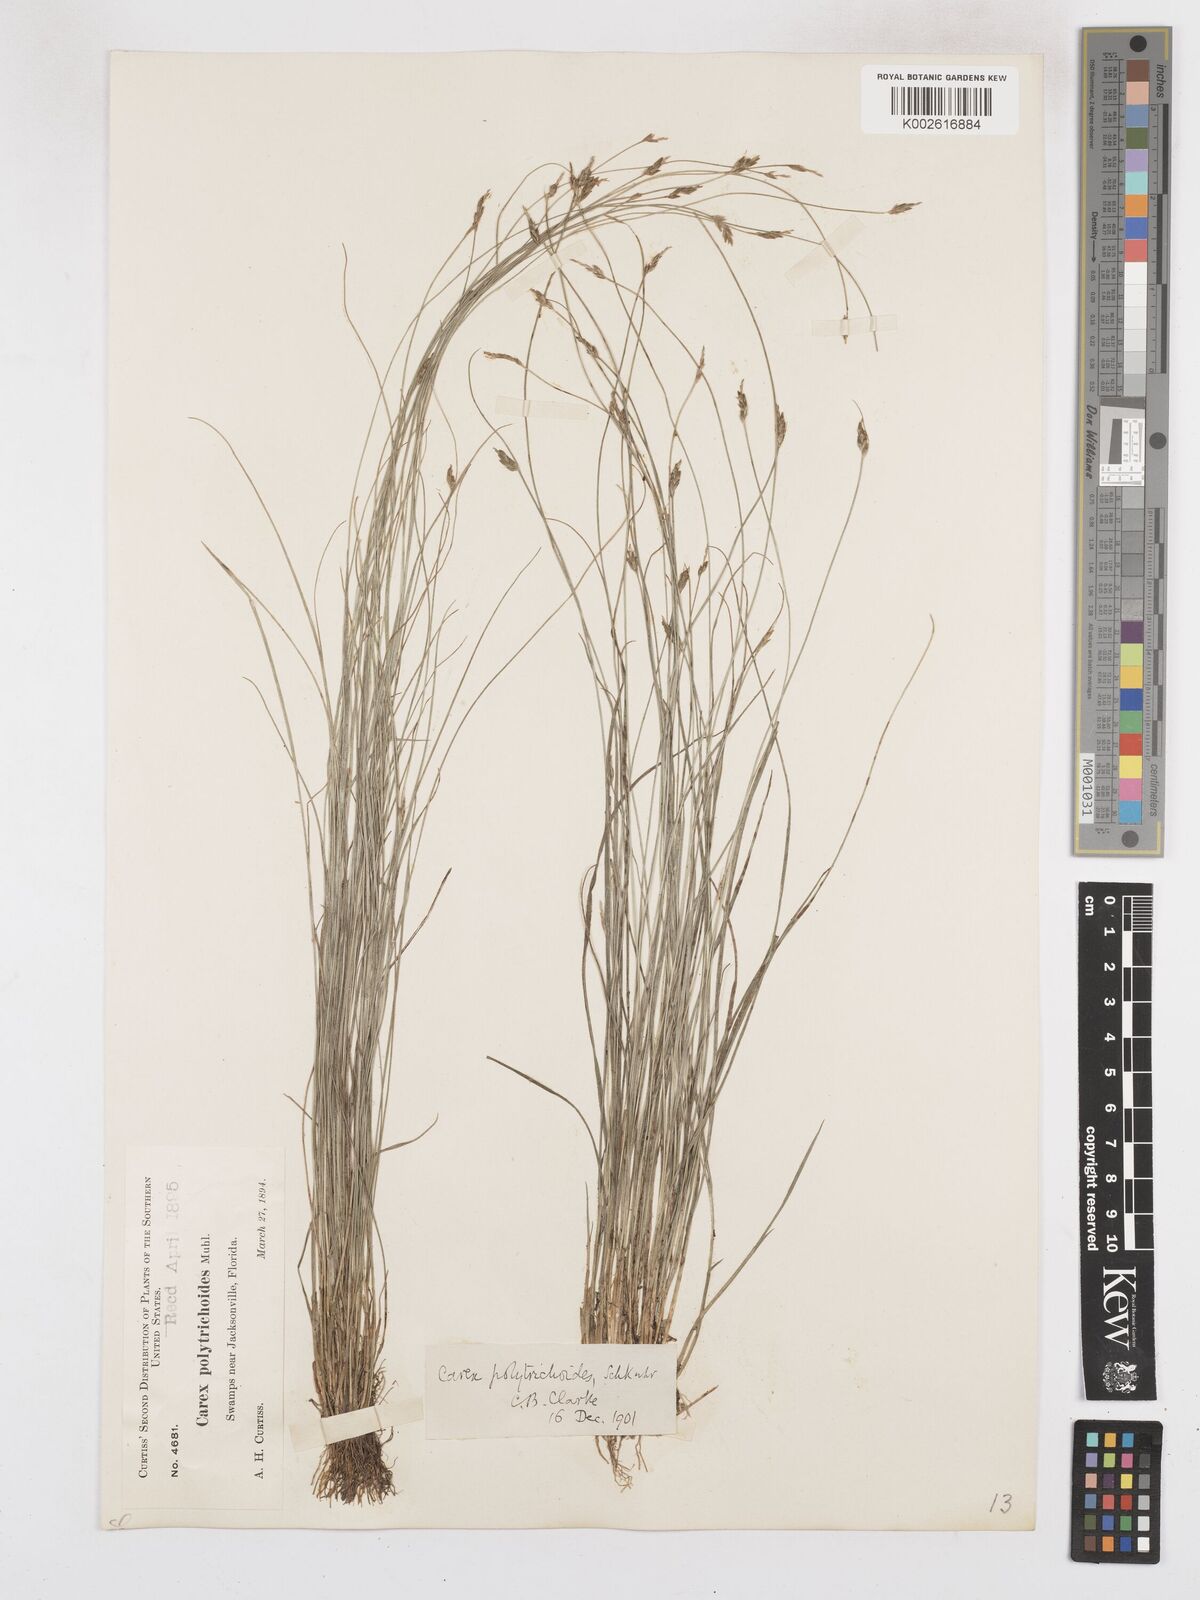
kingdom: Plantae
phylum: Tracheophyta
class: Liliopsida
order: Poales
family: Cyperaceae
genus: Carex
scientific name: Carex leptalea
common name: Bristly-stalked sedge
